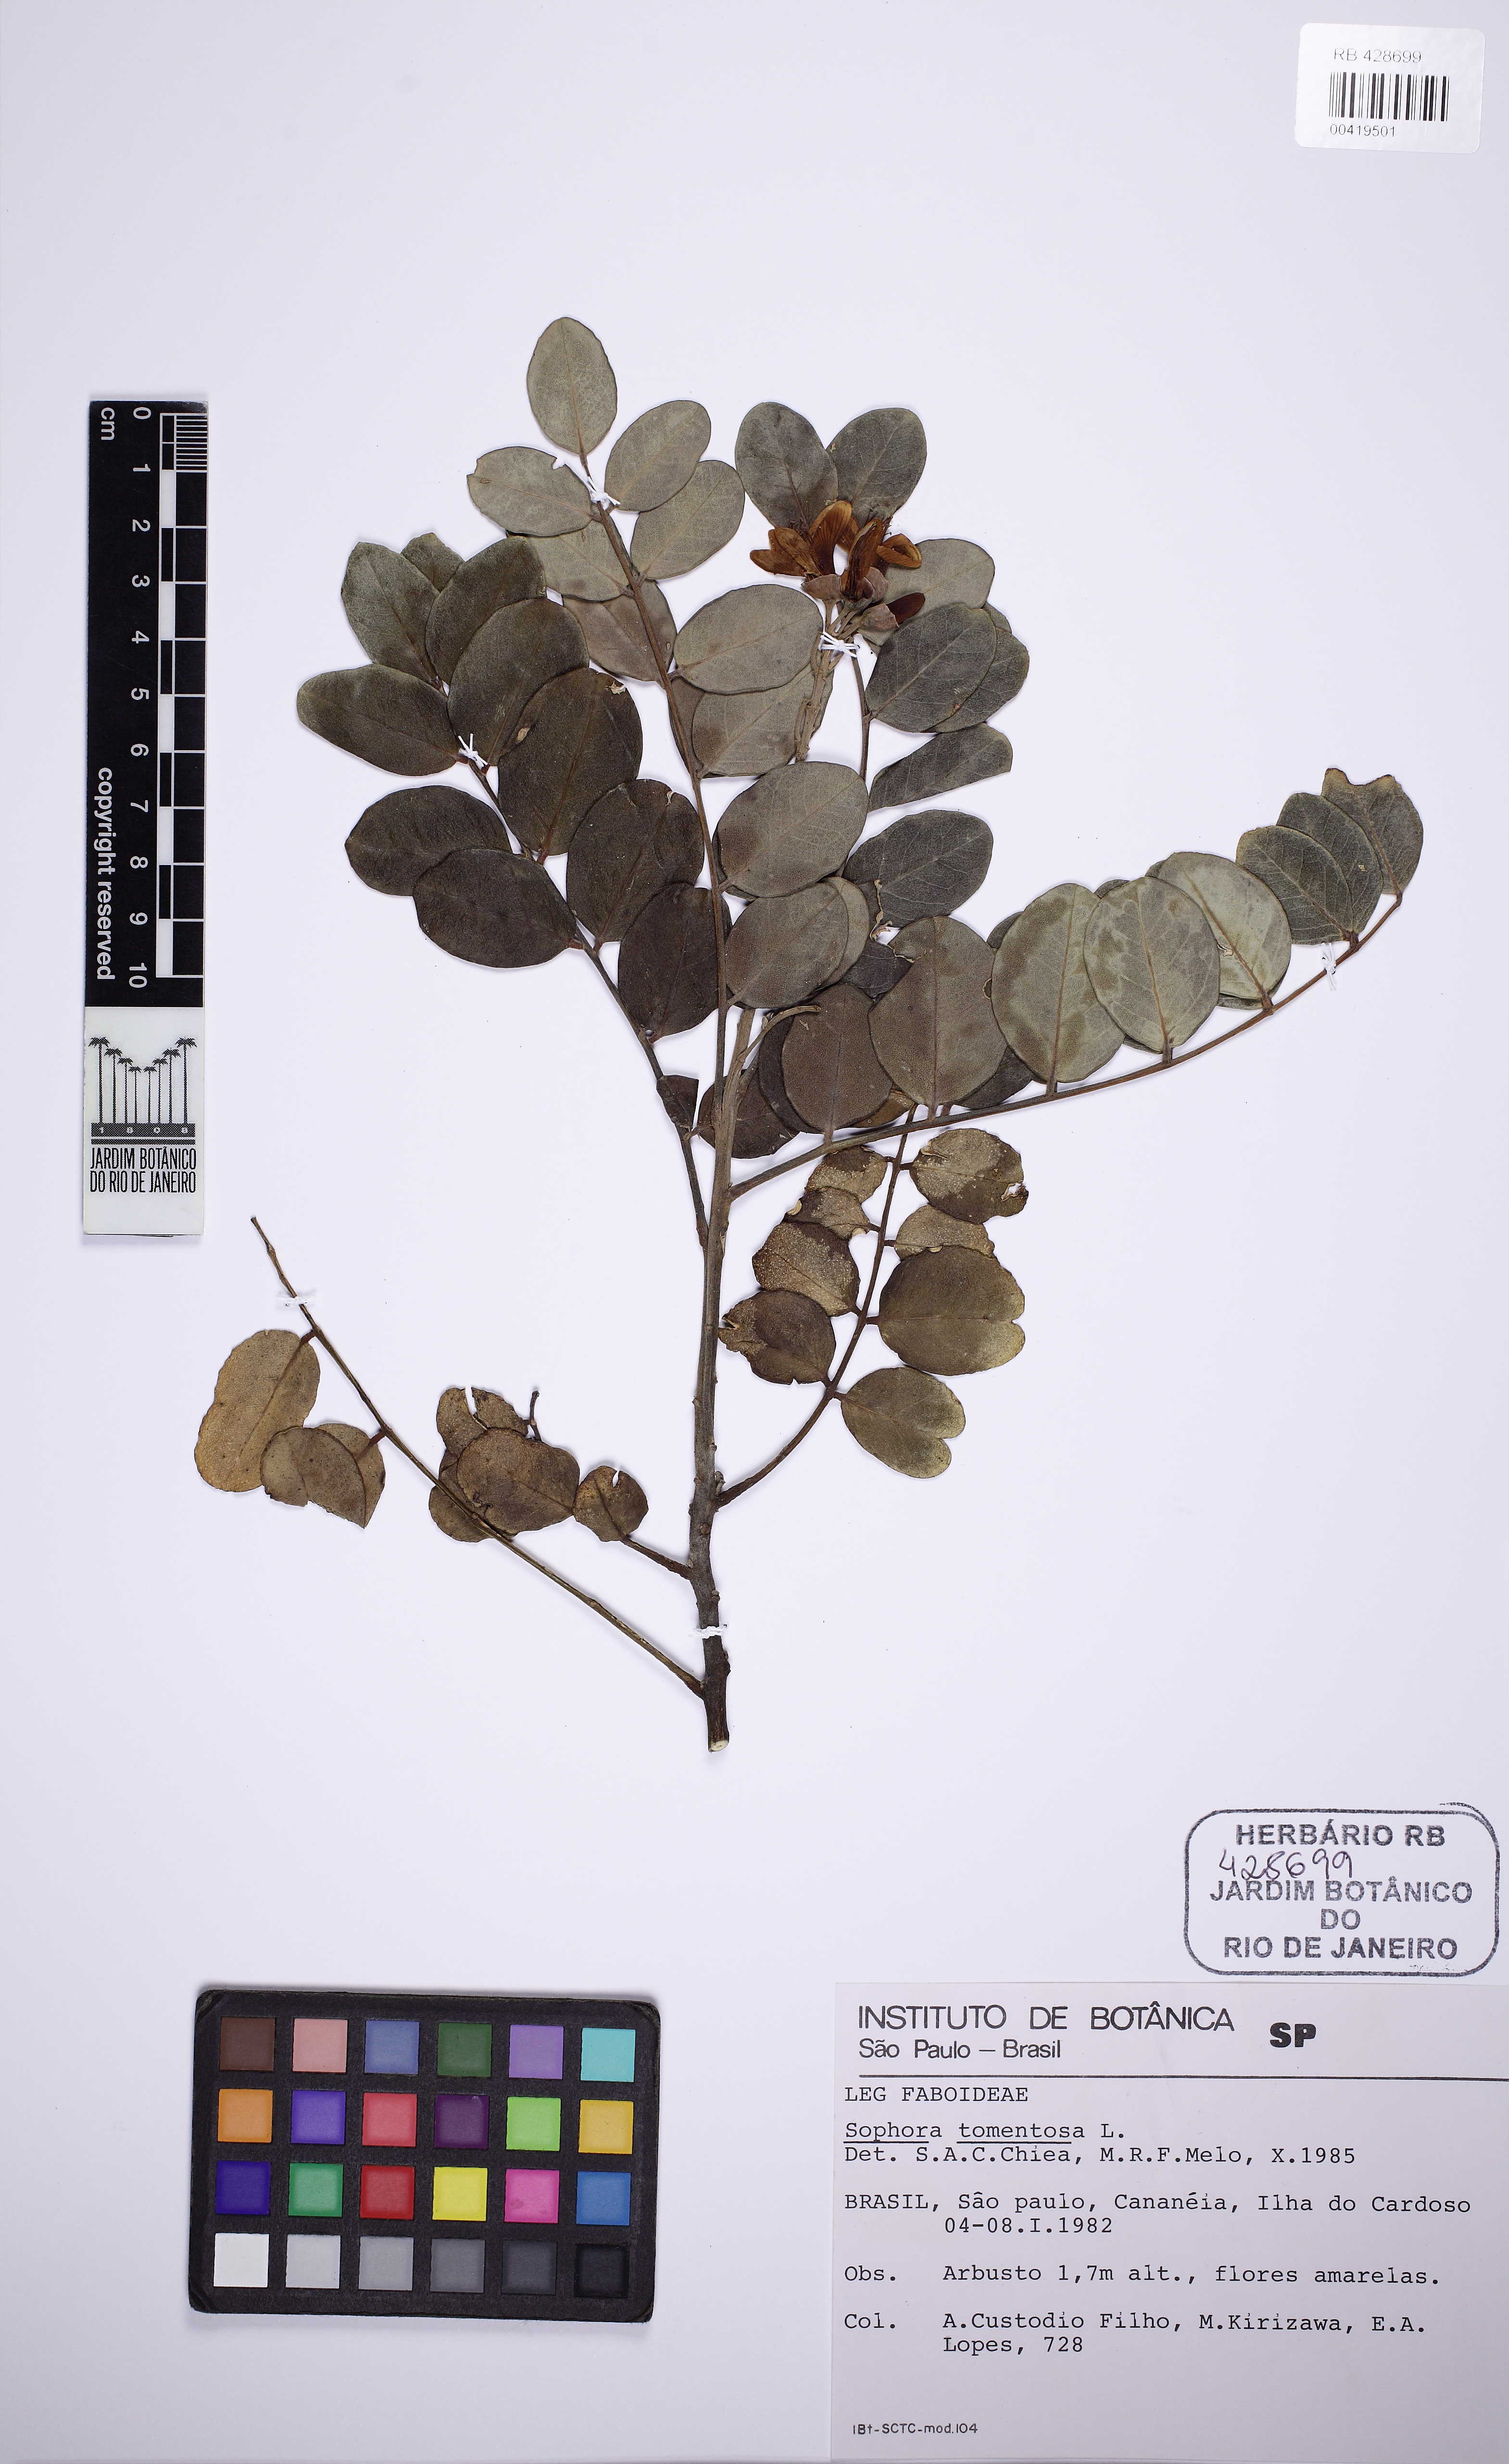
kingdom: Plantae
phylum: Tracheophyta
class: Magnoliopsida
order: Fabales
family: Fabaceae
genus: Sophora
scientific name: Sophora tomentosa
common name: Yellow necklacepod
